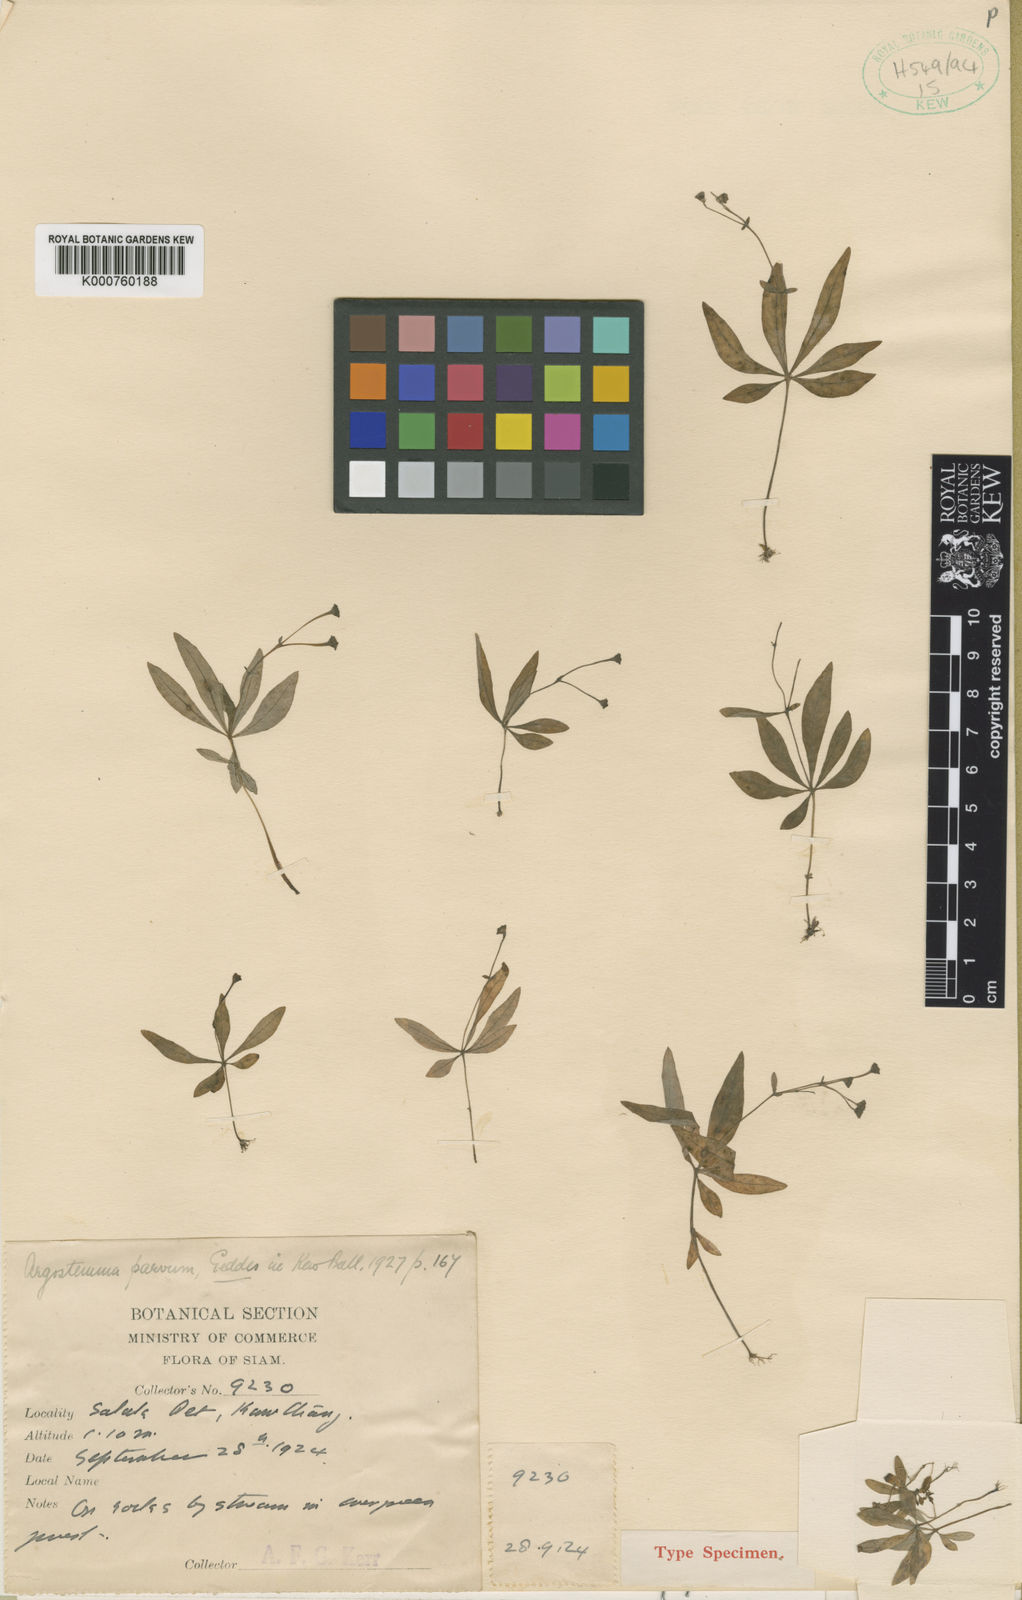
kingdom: Plantae
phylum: Tracheophyta
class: Magnoliopsida
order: Gentianales
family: Rubiaceae
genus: Argostemma
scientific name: Argostemma parvum
